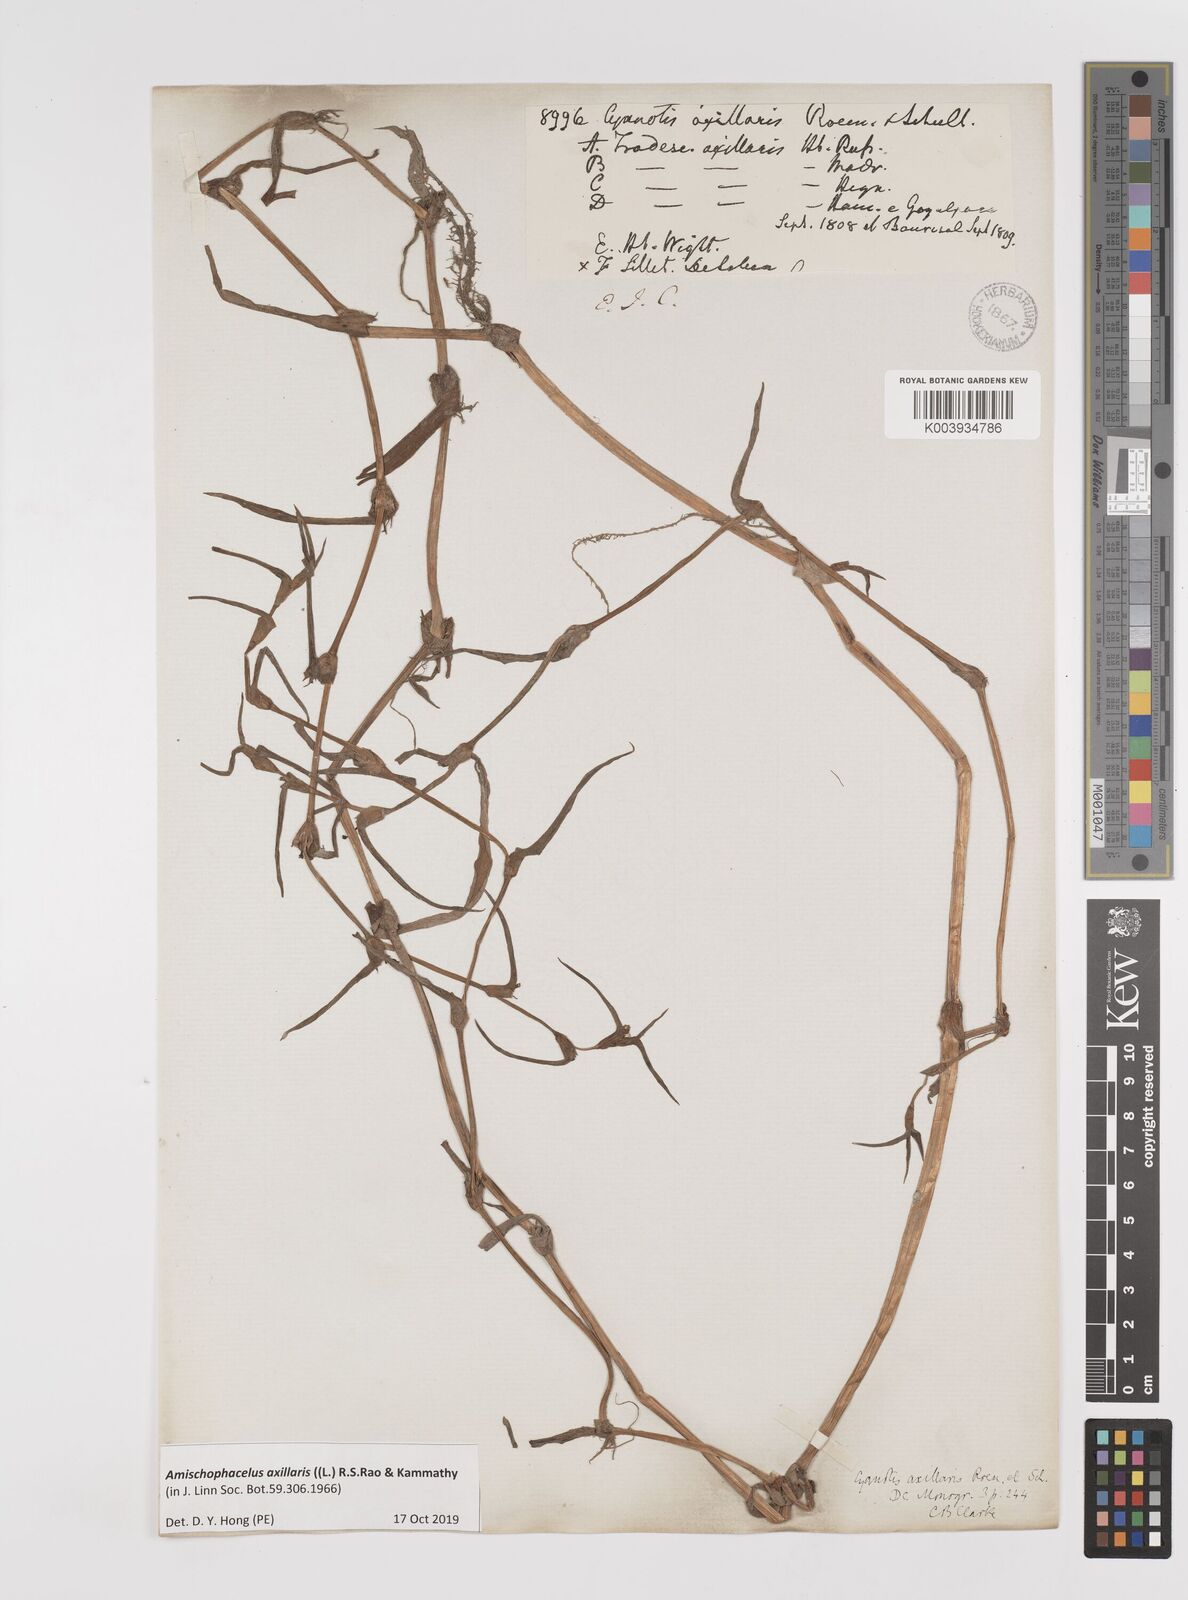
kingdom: Plantae
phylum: Tracheophyta
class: Liliopsida
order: Commelinales
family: Commelinaceae
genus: Cyanotis
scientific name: Cyanotis axillaris
